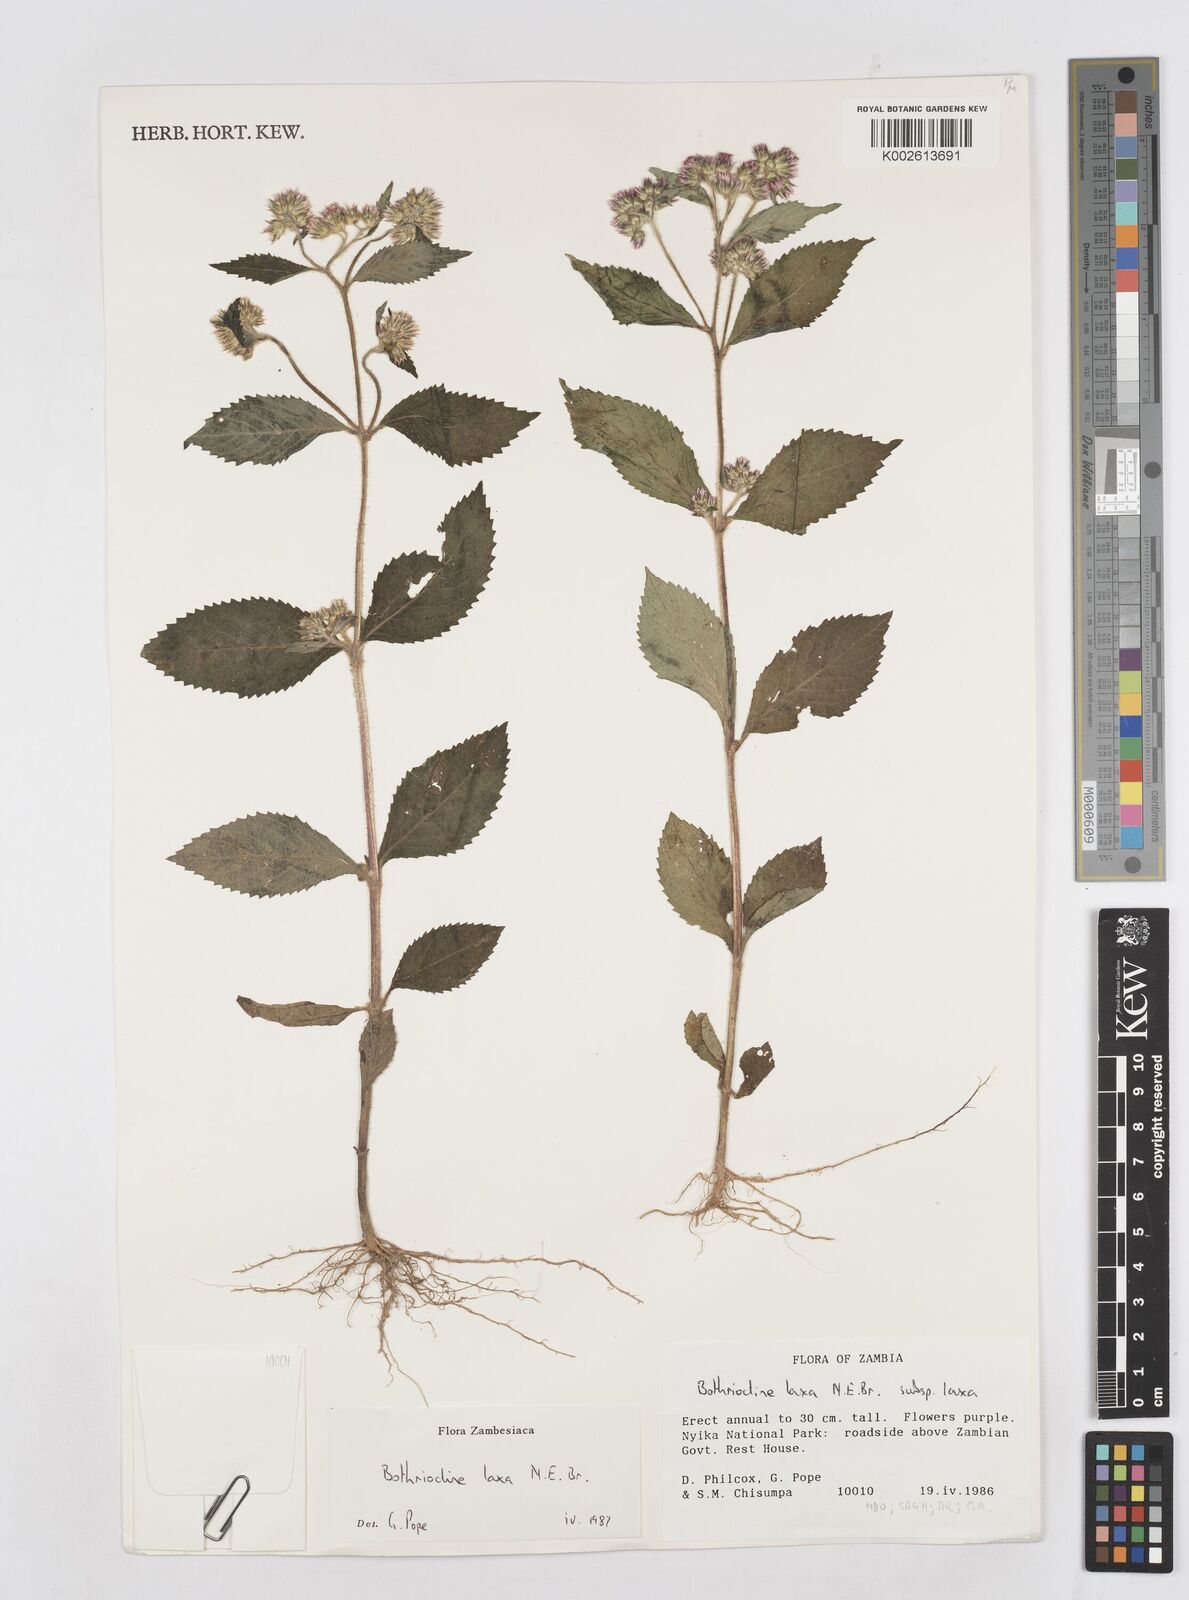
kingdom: Plantae
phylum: Tracheophyta
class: Magnoliopsida
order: Asterales
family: Asteraceae
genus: Bothriocline
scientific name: Bothriocline laxa
